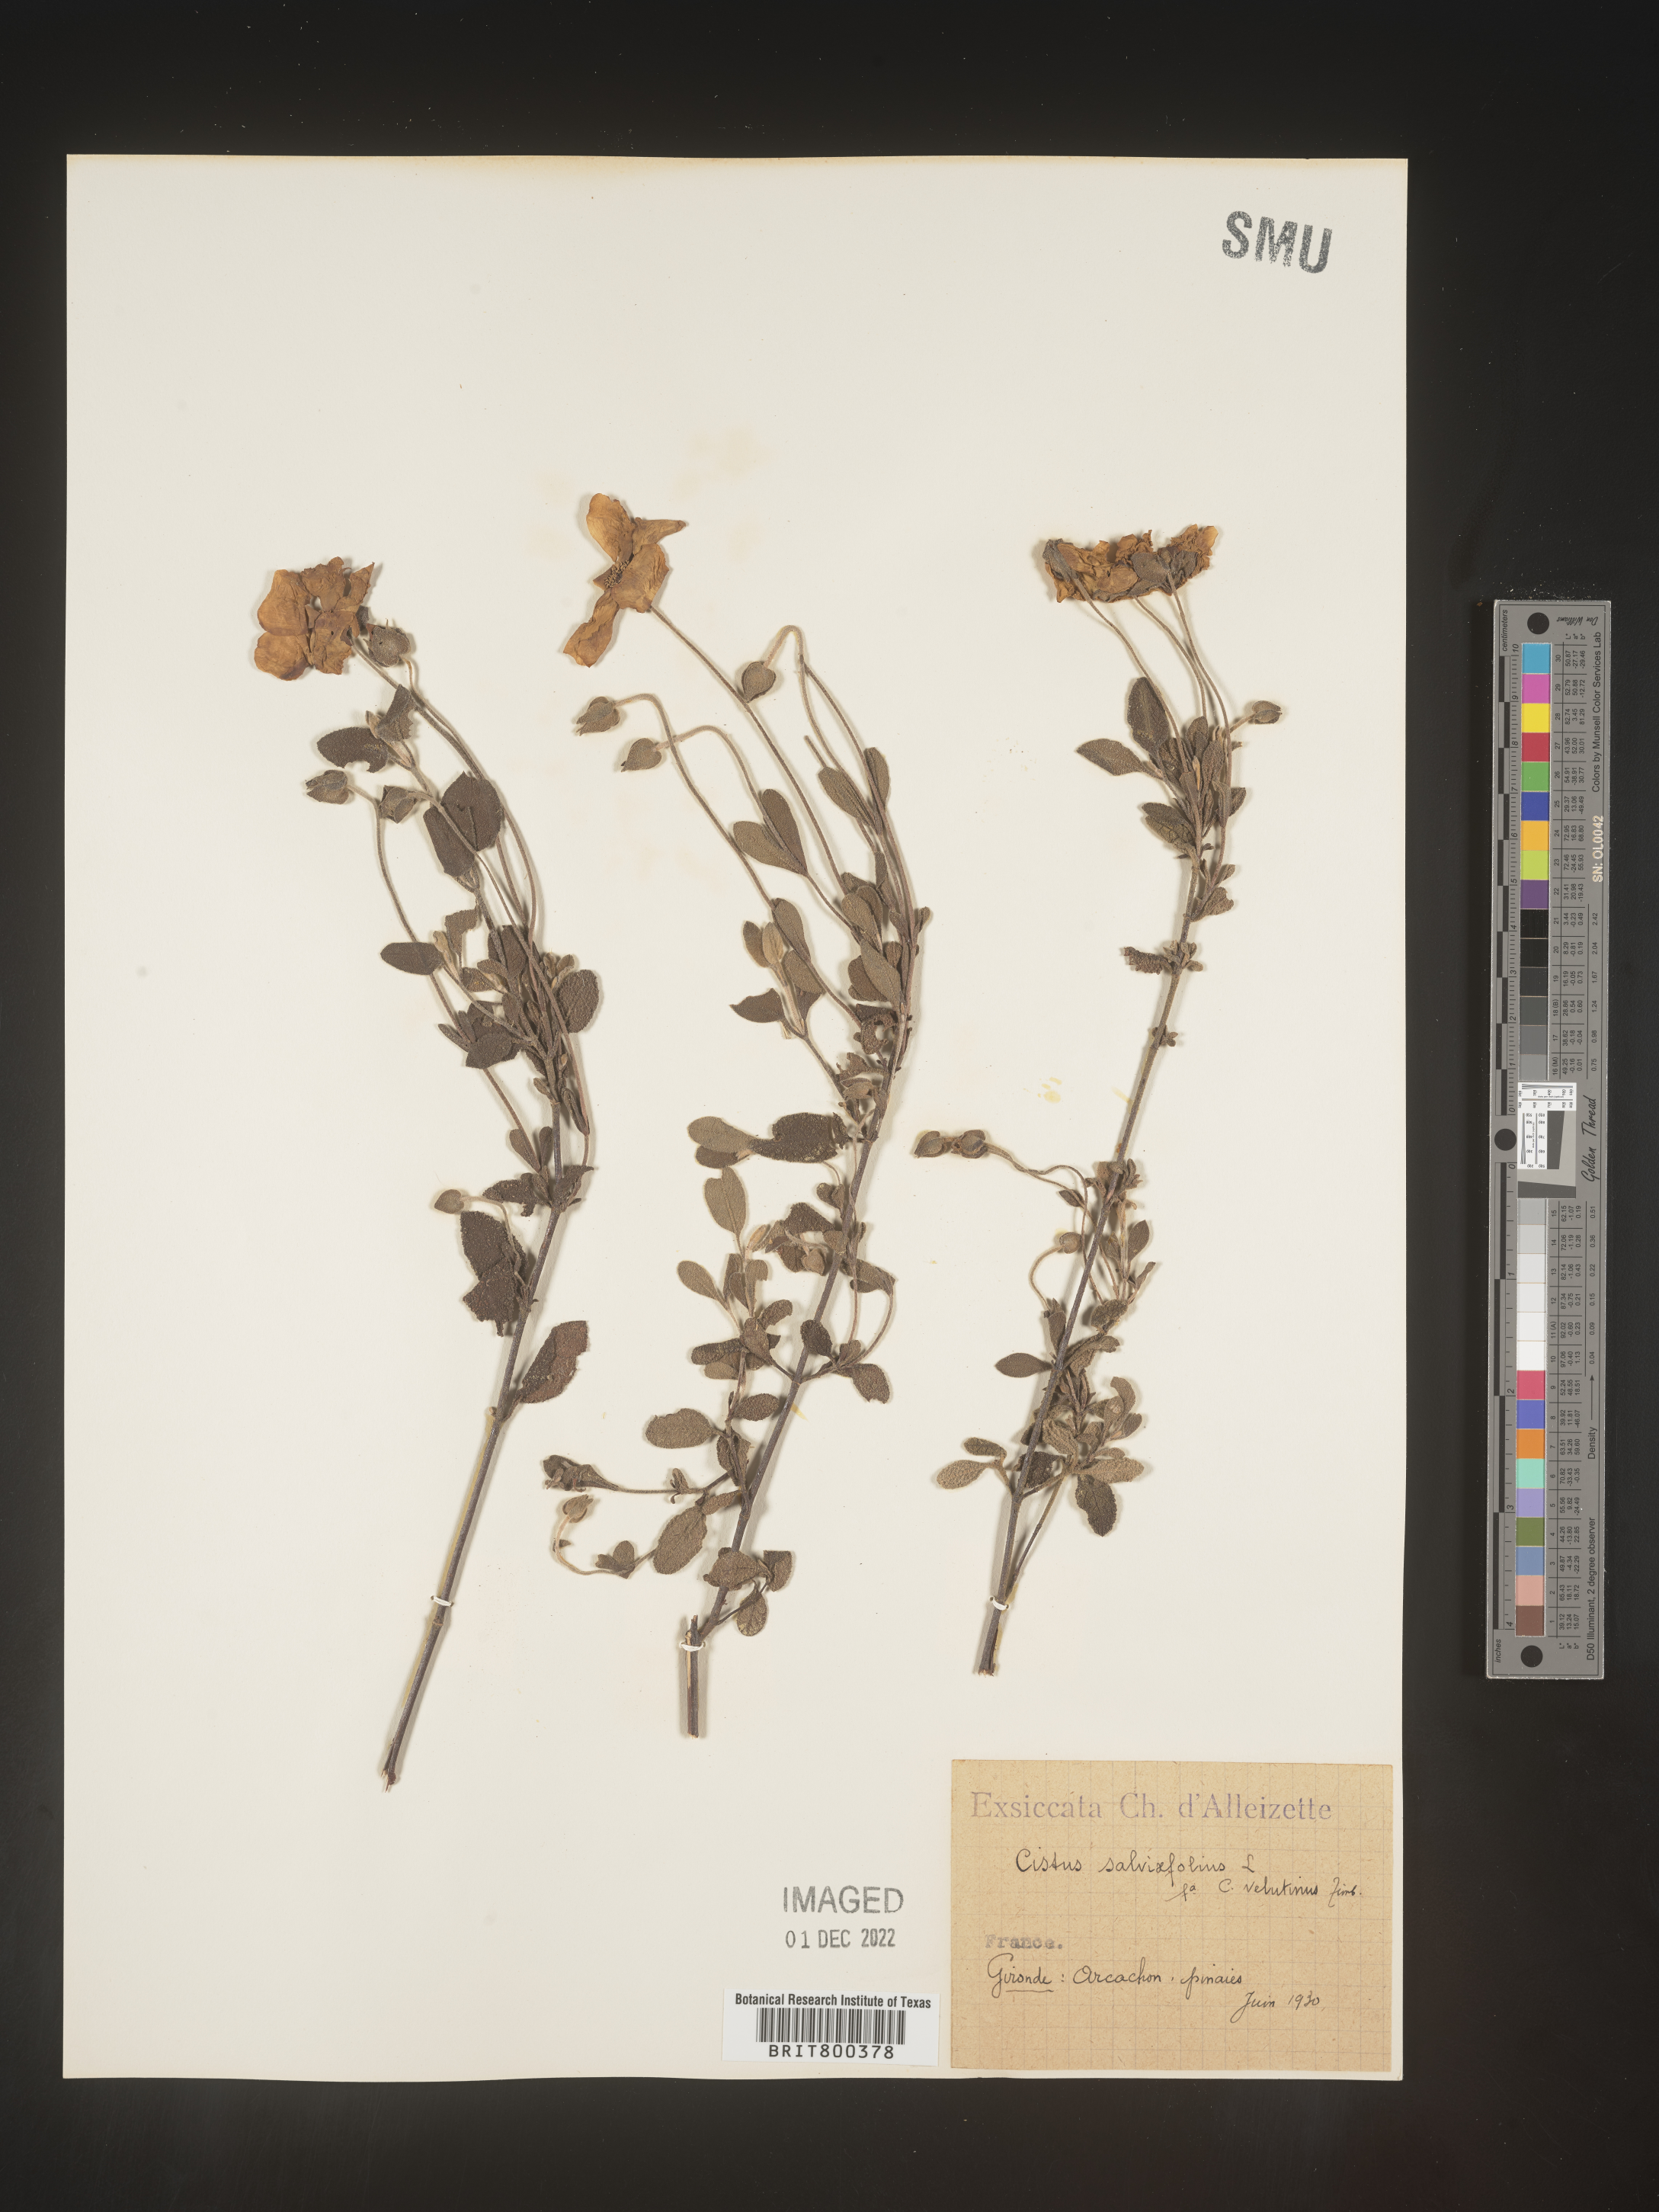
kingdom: Plantae
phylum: Tracheophyta
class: Magnoliopsida
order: Malvales
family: Cistaceae
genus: Cistus
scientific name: Cistus
